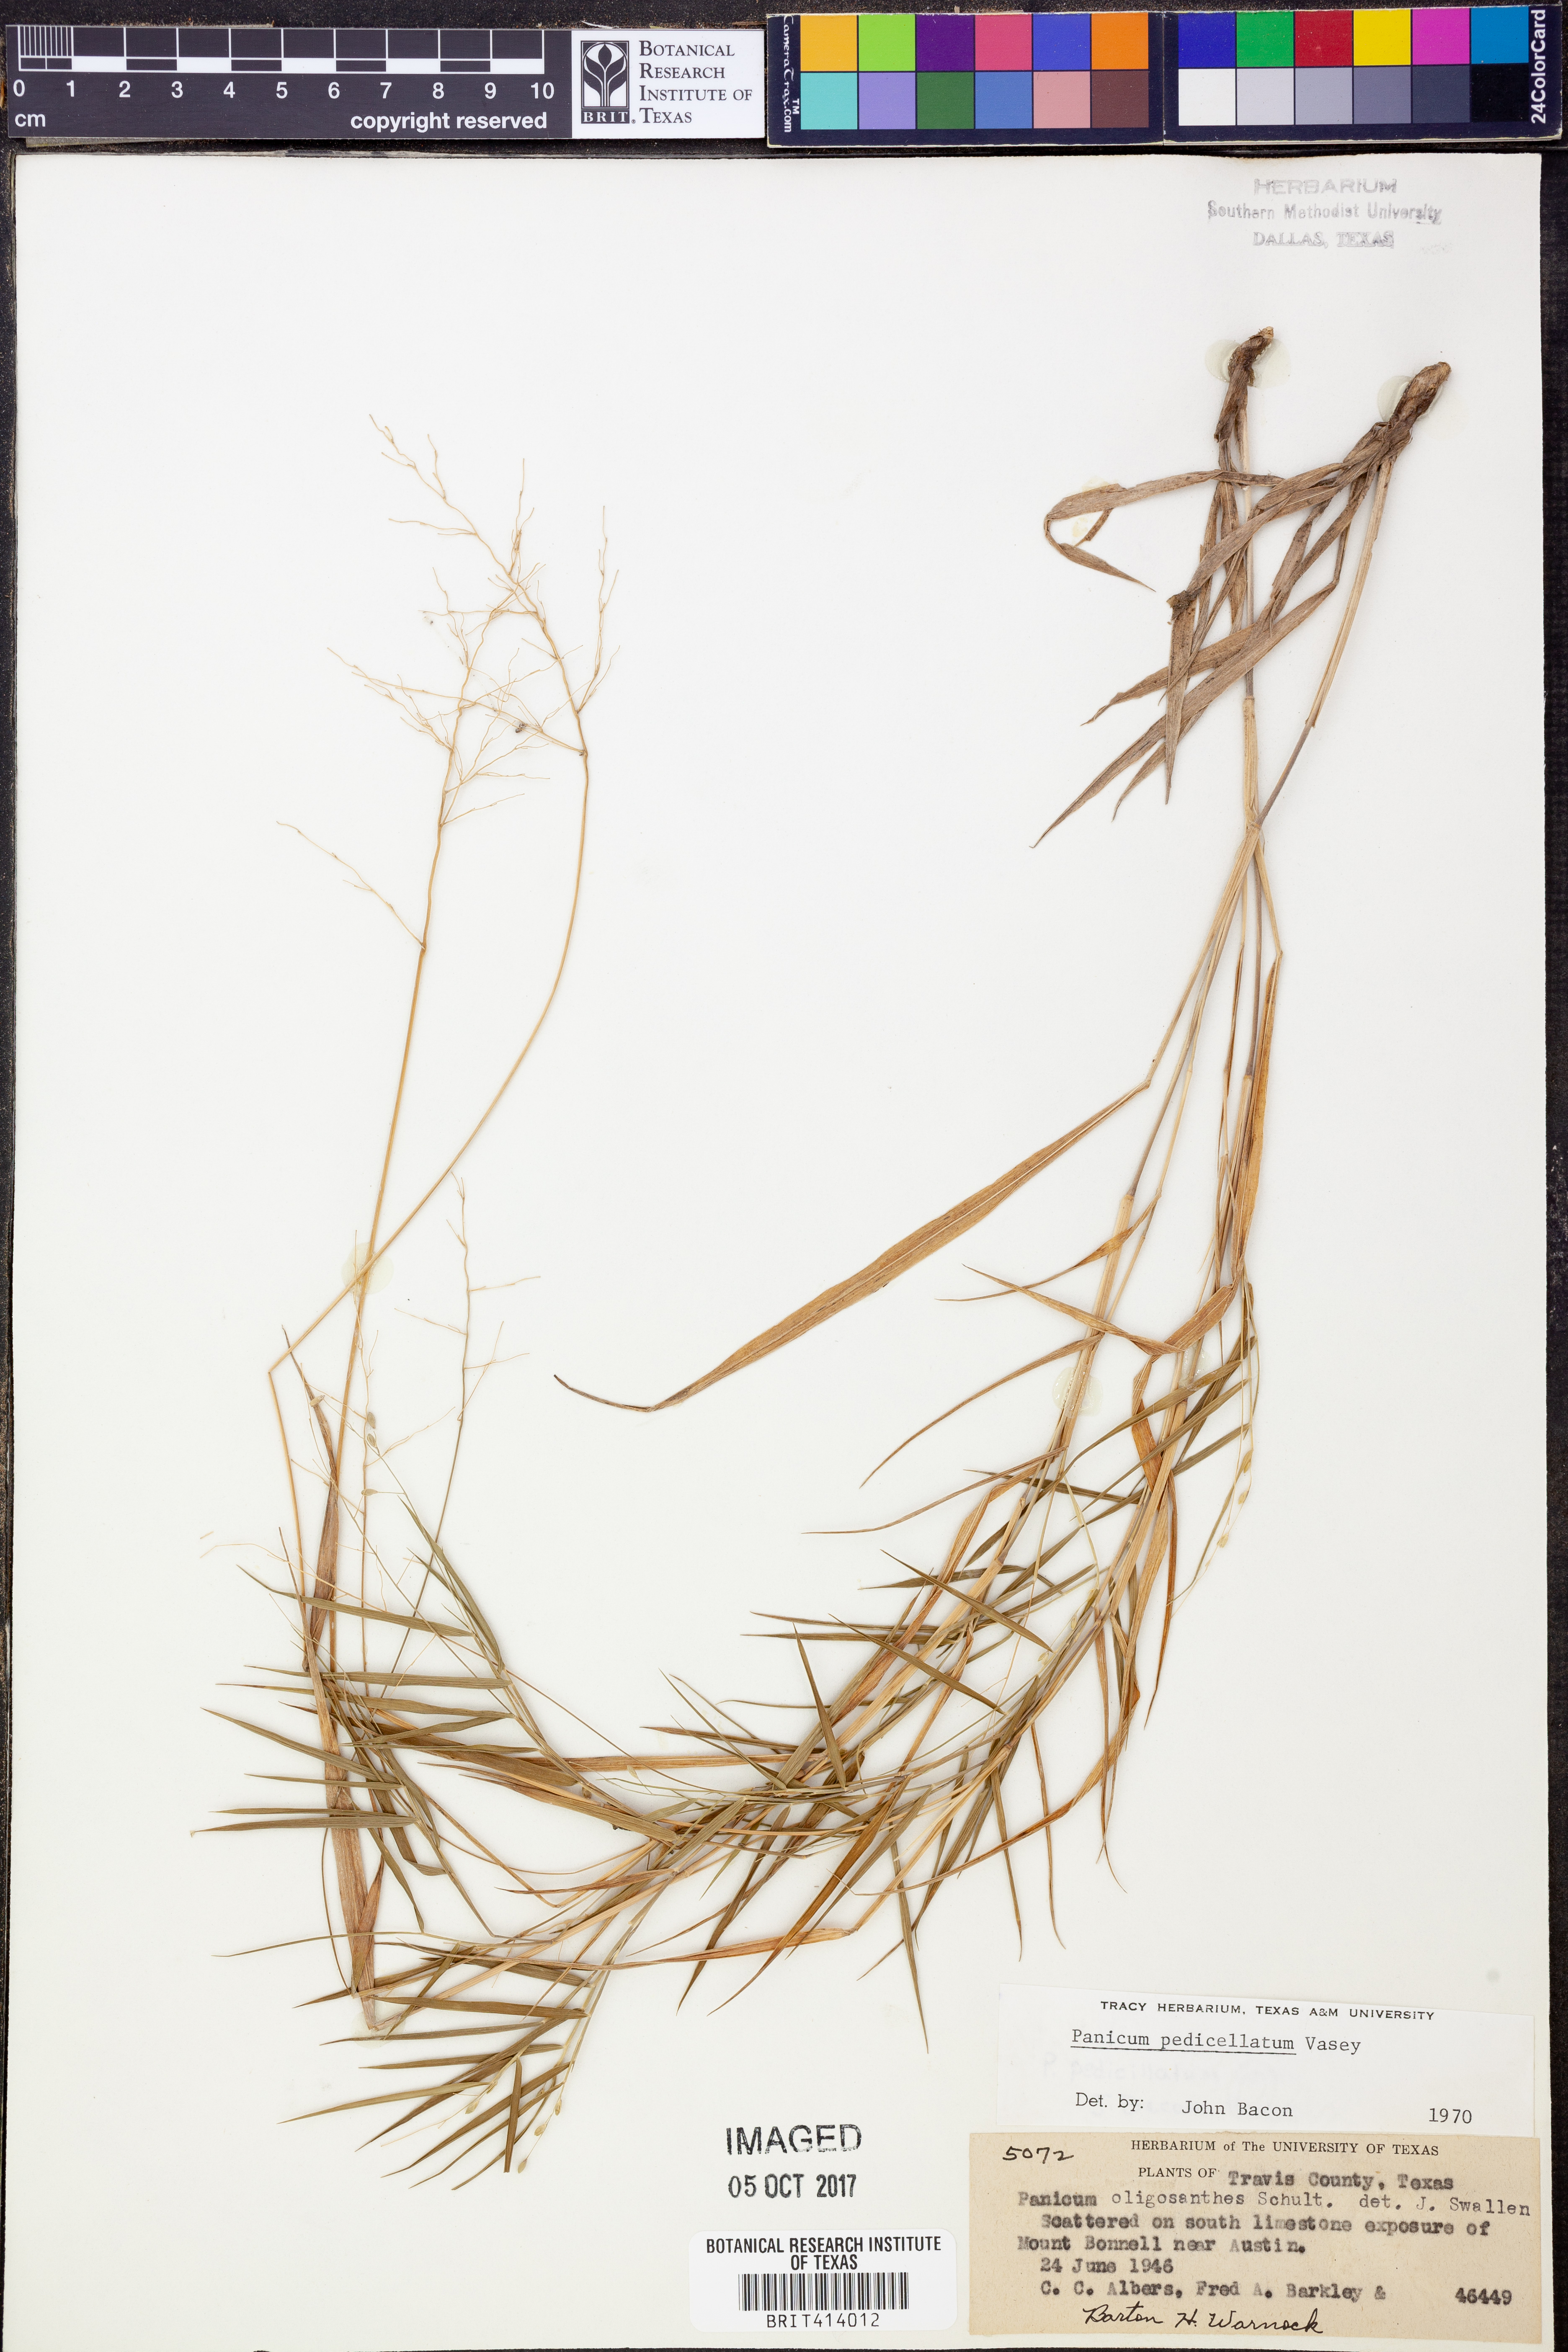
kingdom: Plantae
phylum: Tracheophyta
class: Liliopsida
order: Poales
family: Poaceae
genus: Dichanthelium
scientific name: Dichanthelium transiens
